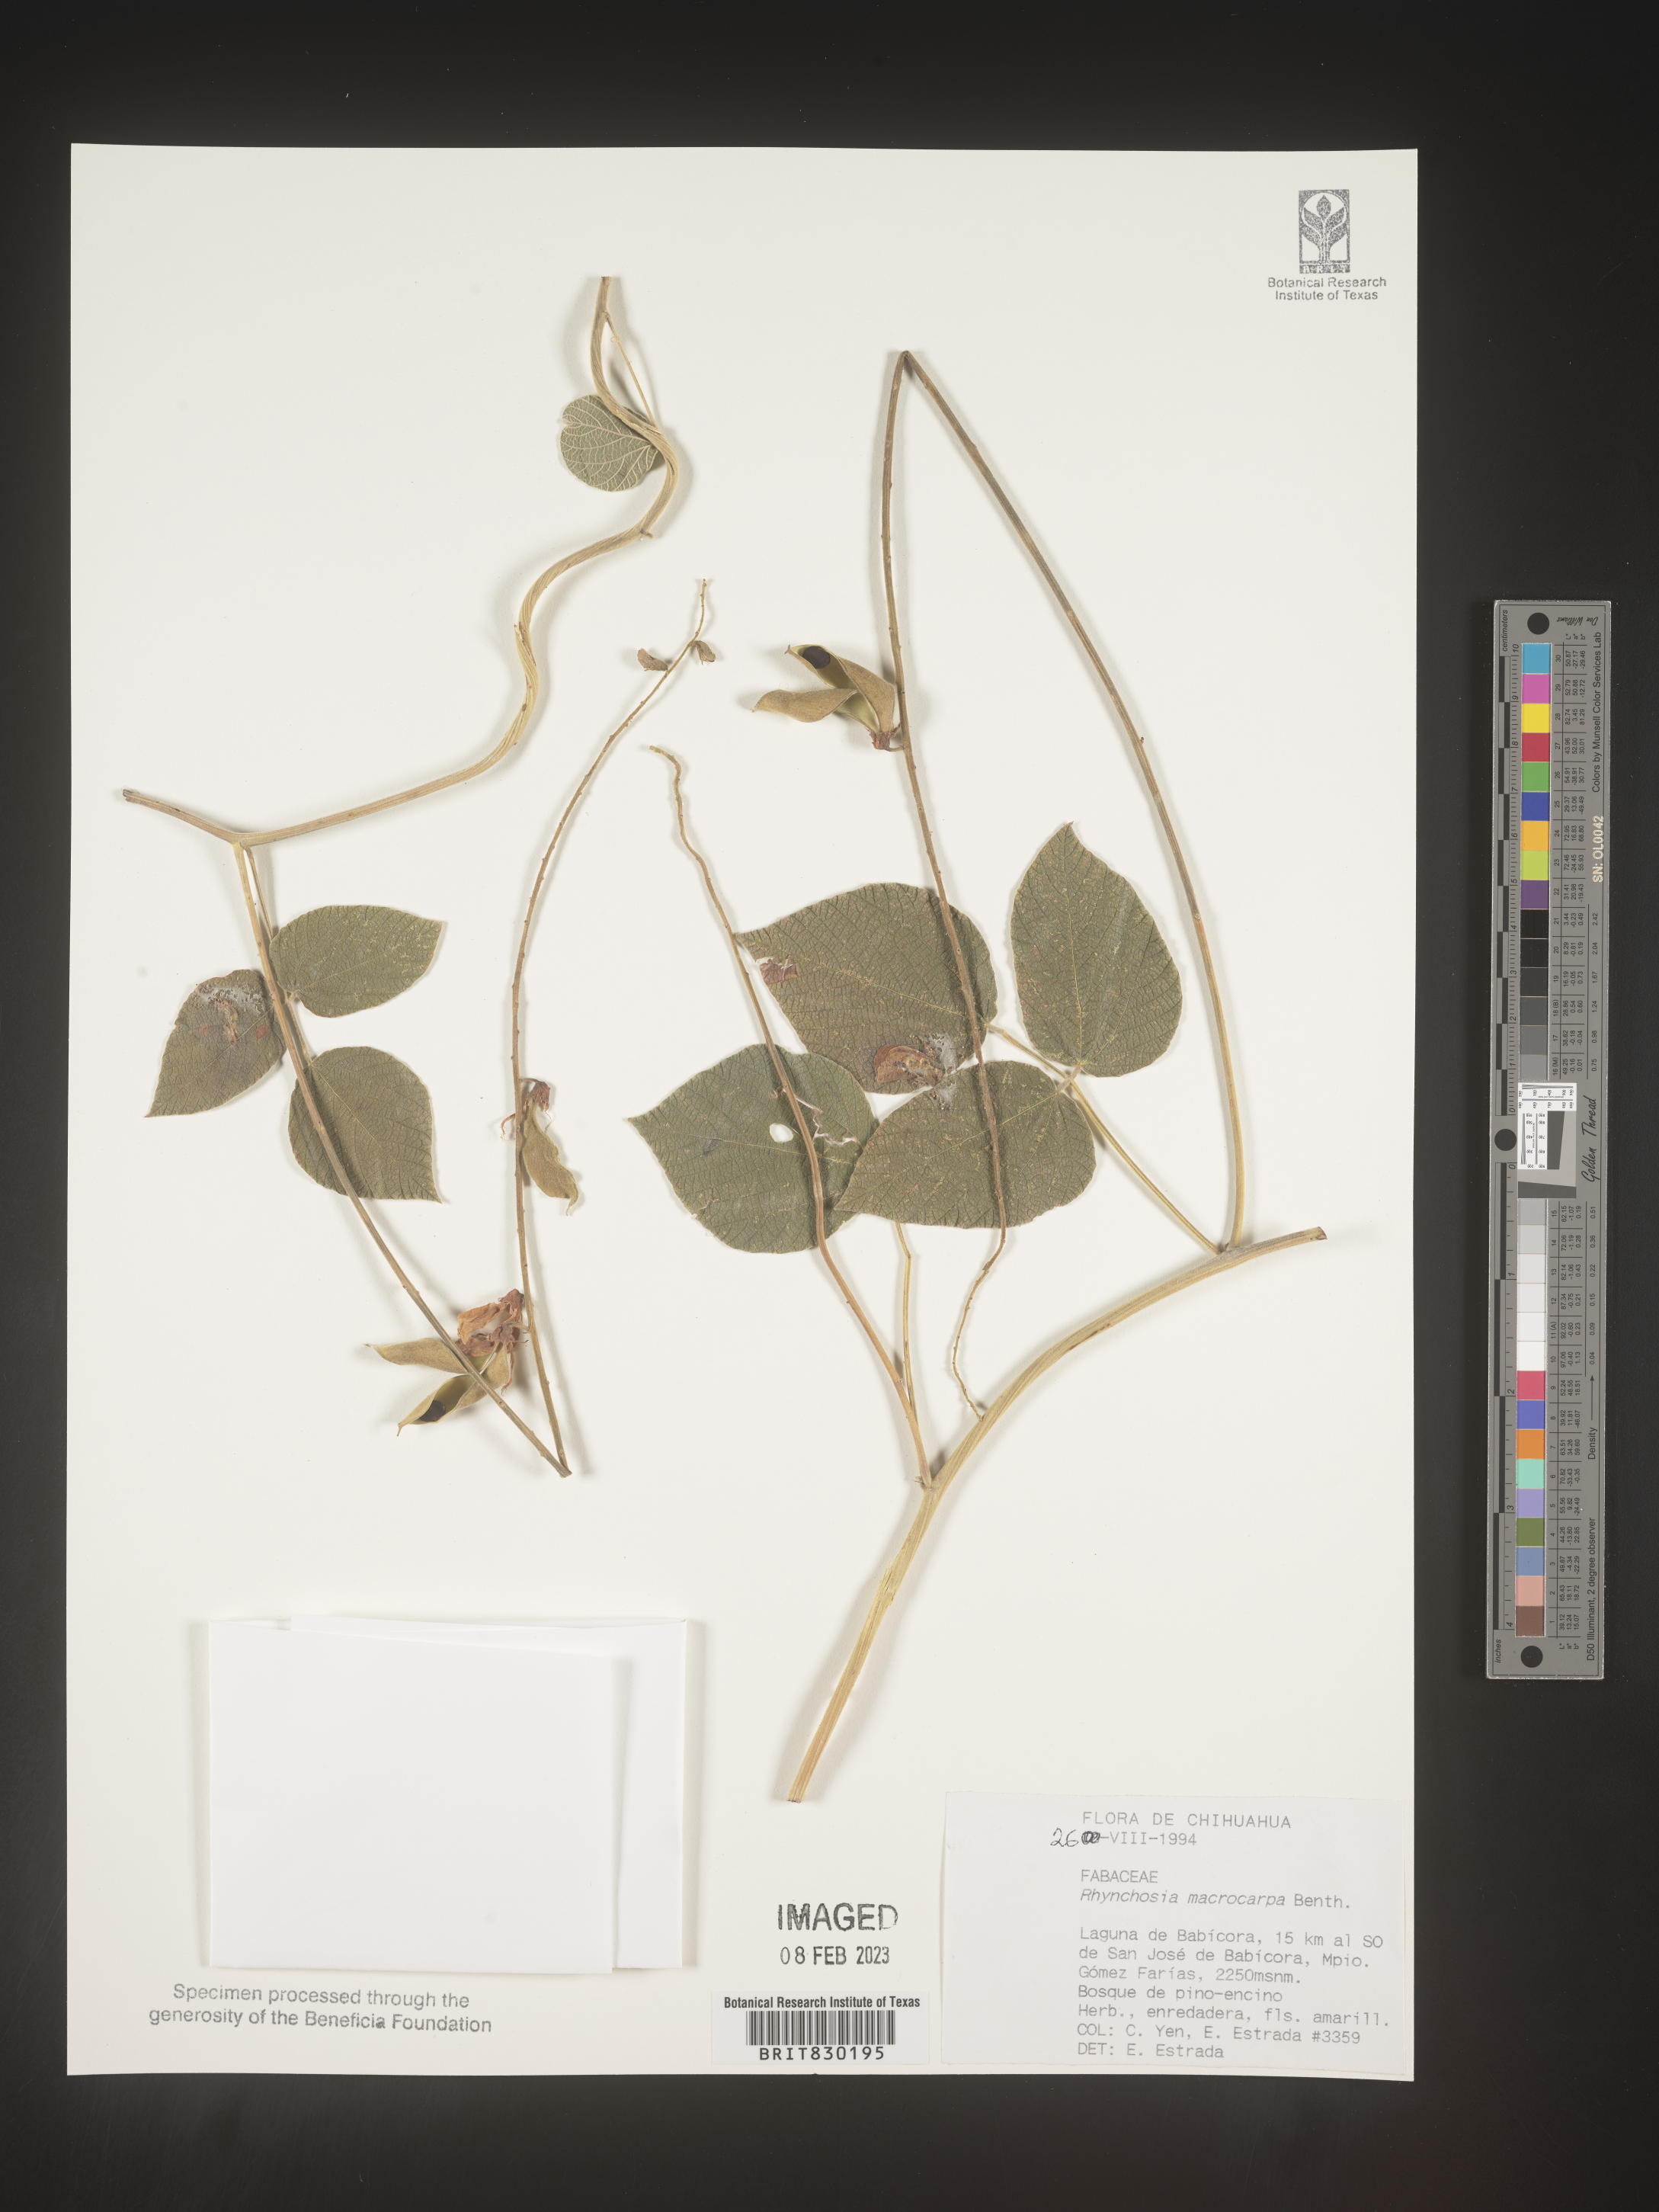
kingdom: Plantae
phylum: Tracheophyta
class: Magnoliopsida
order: Fabales
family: Fabaceae
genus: Rhynchosia
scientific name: Rhynchosia
